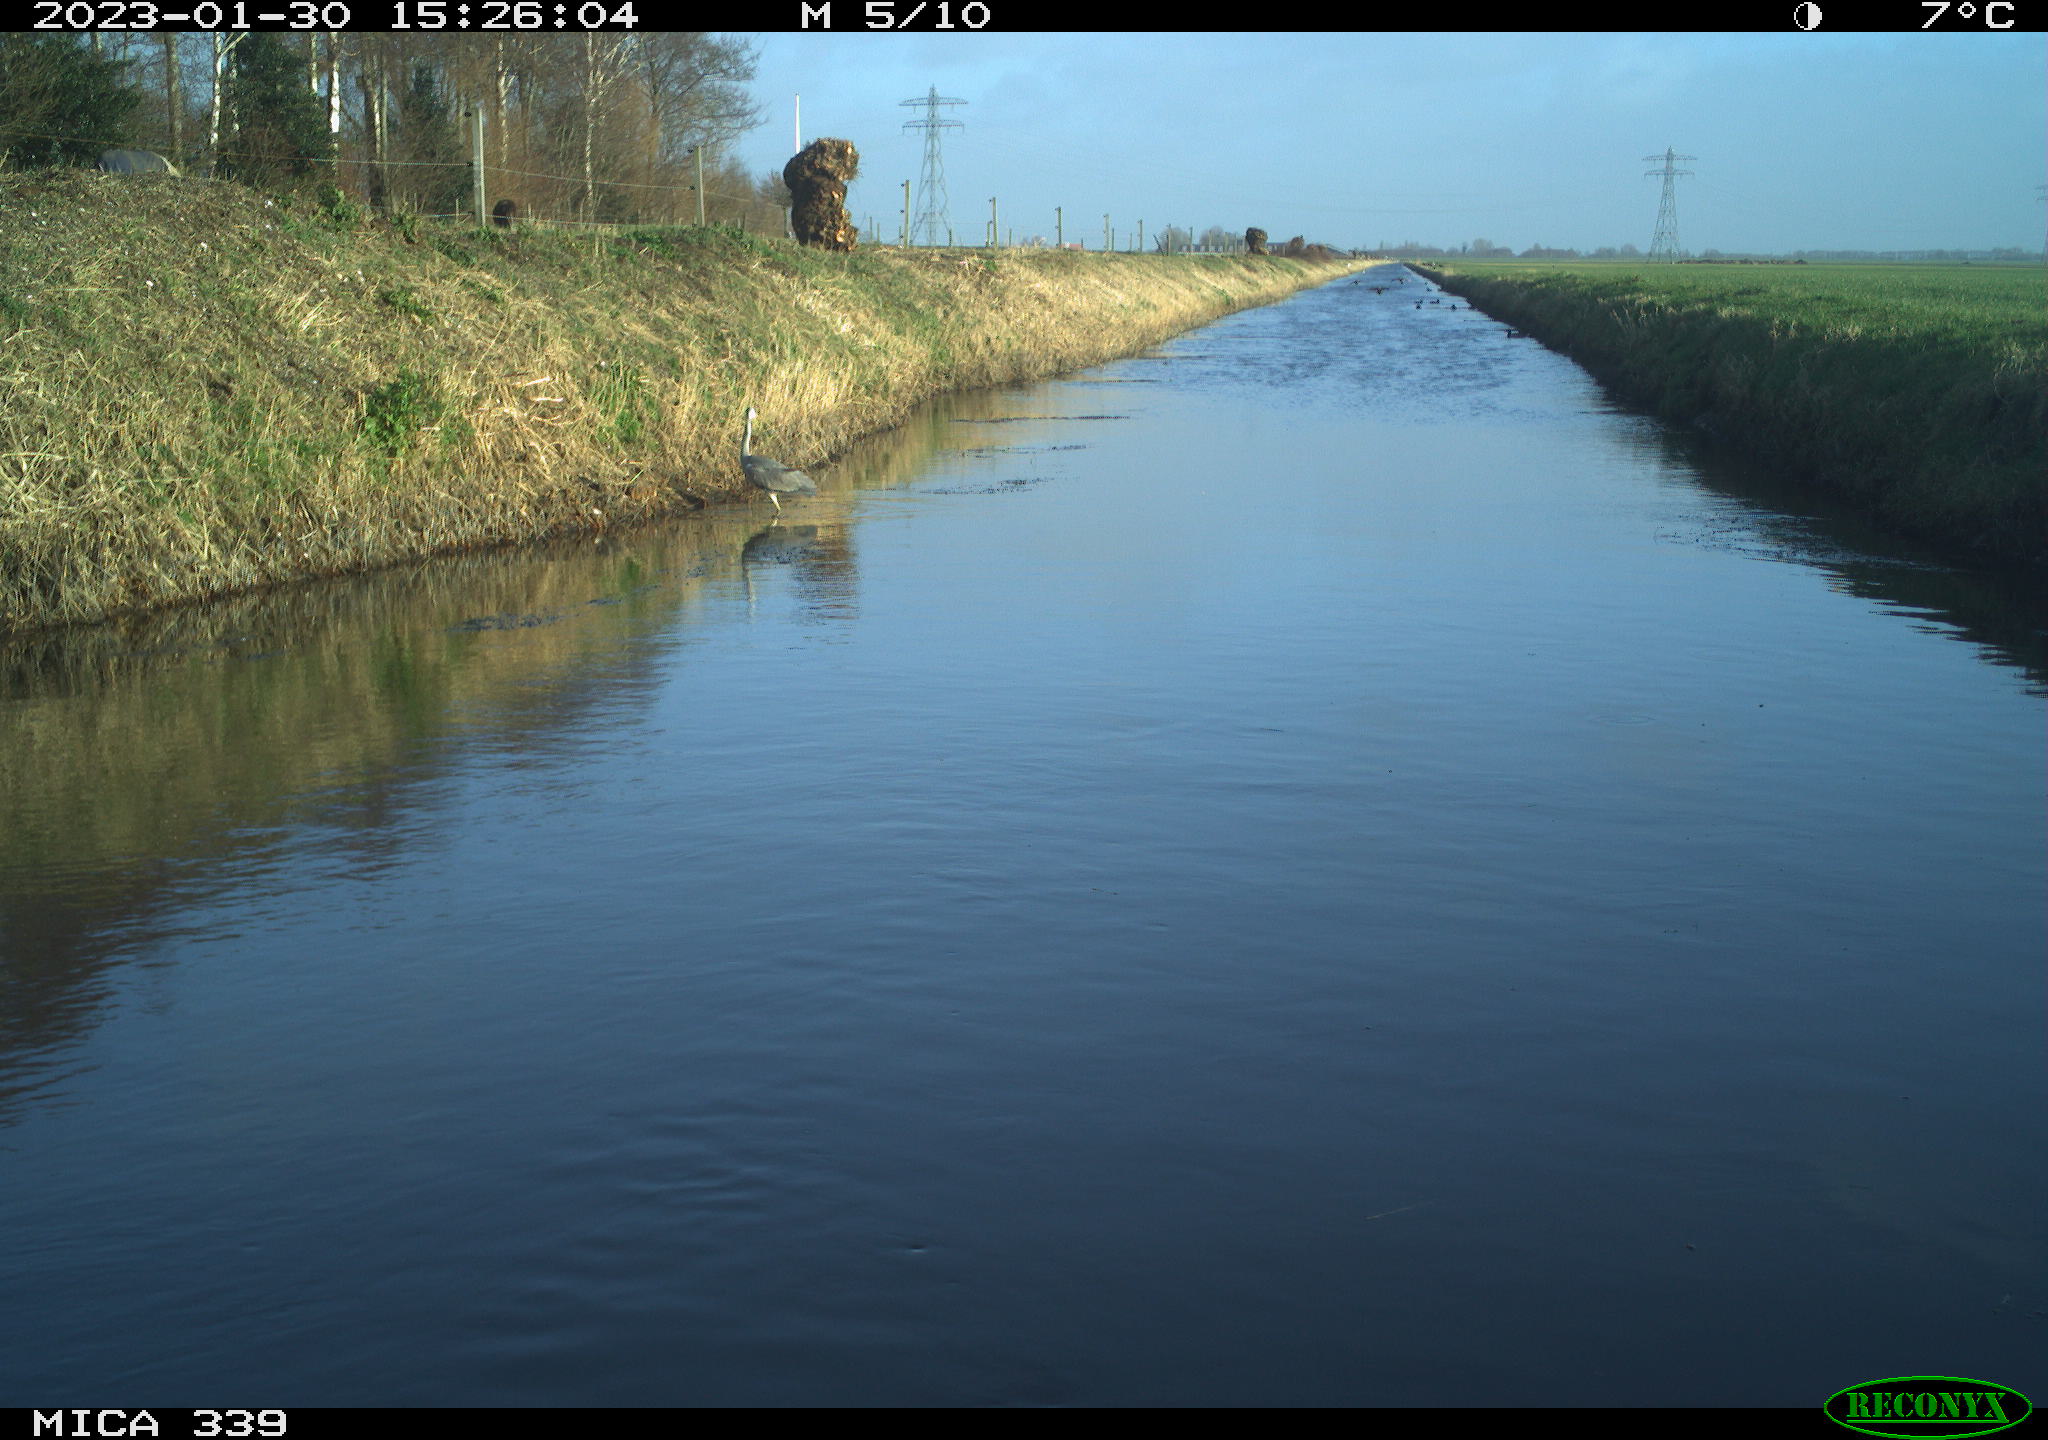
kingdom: Animalia
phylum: Chordata
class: Aves
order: Pelecaniformes
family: Ardeidae
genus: Ardea
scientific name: Ardea cinerea
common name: Grey heron
